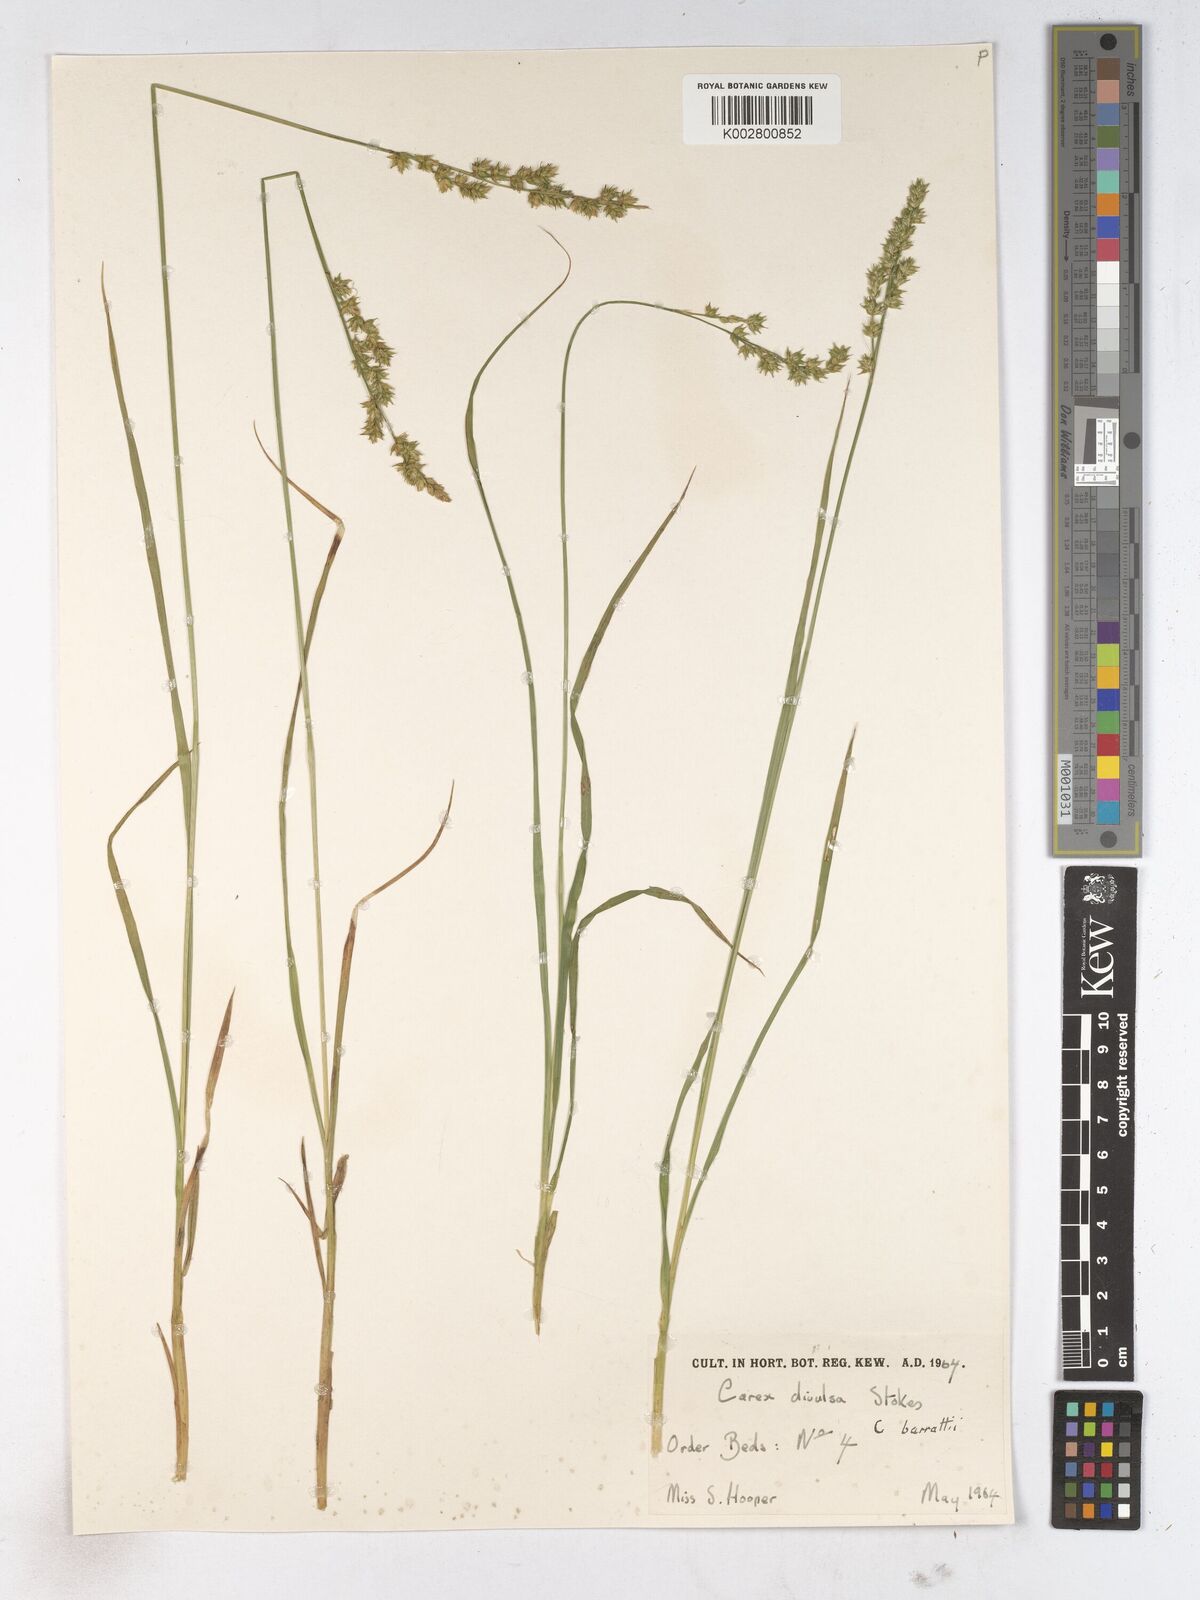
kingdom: Plantae
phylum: Tracheophyta
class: Liliopsida
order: Poales
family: Cyperaceae
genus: Carex
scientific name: Carex comans
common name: Longwood tussock
